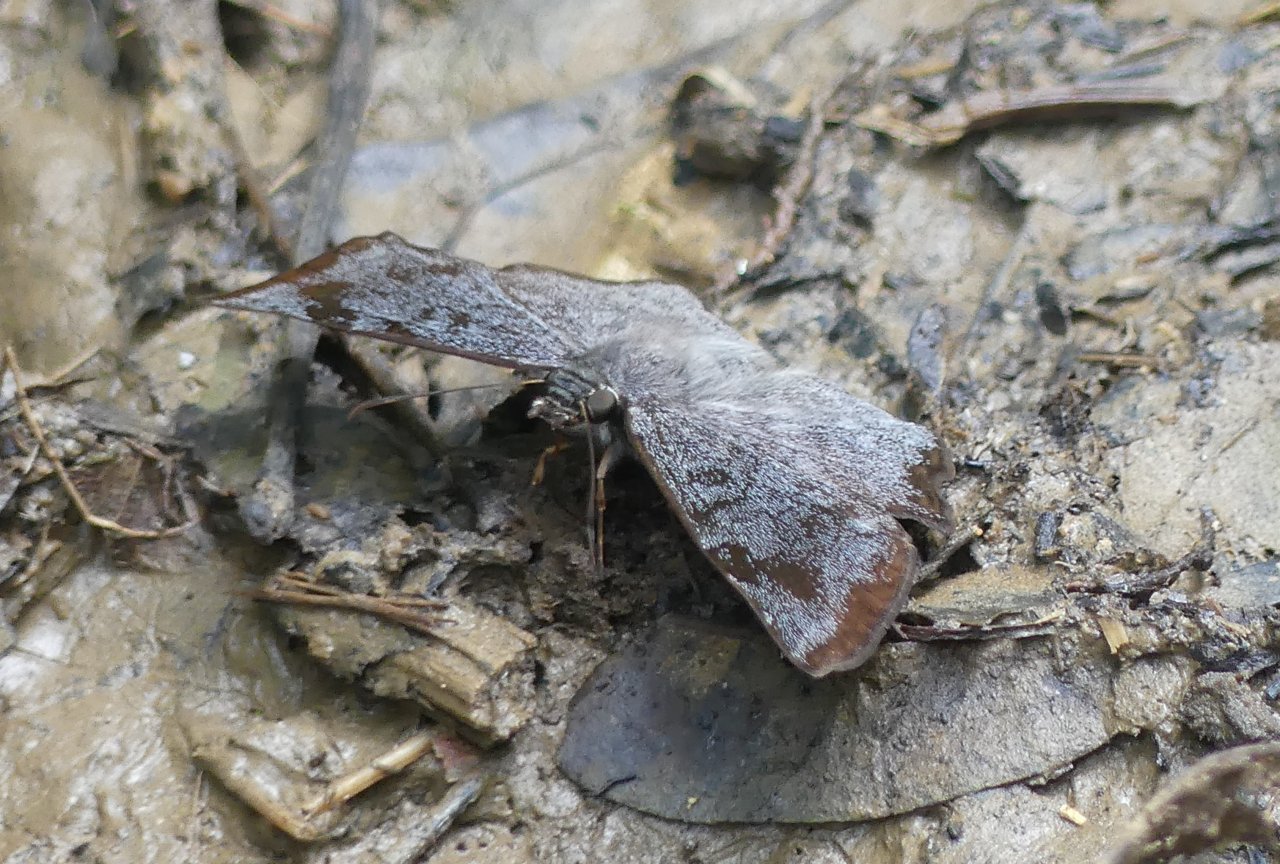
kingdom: Animalia
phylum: Arthropoda
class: Insecta
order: Lepidoptera
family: Hesperiidae
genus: Antigonus
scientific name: Antigonus erosus
